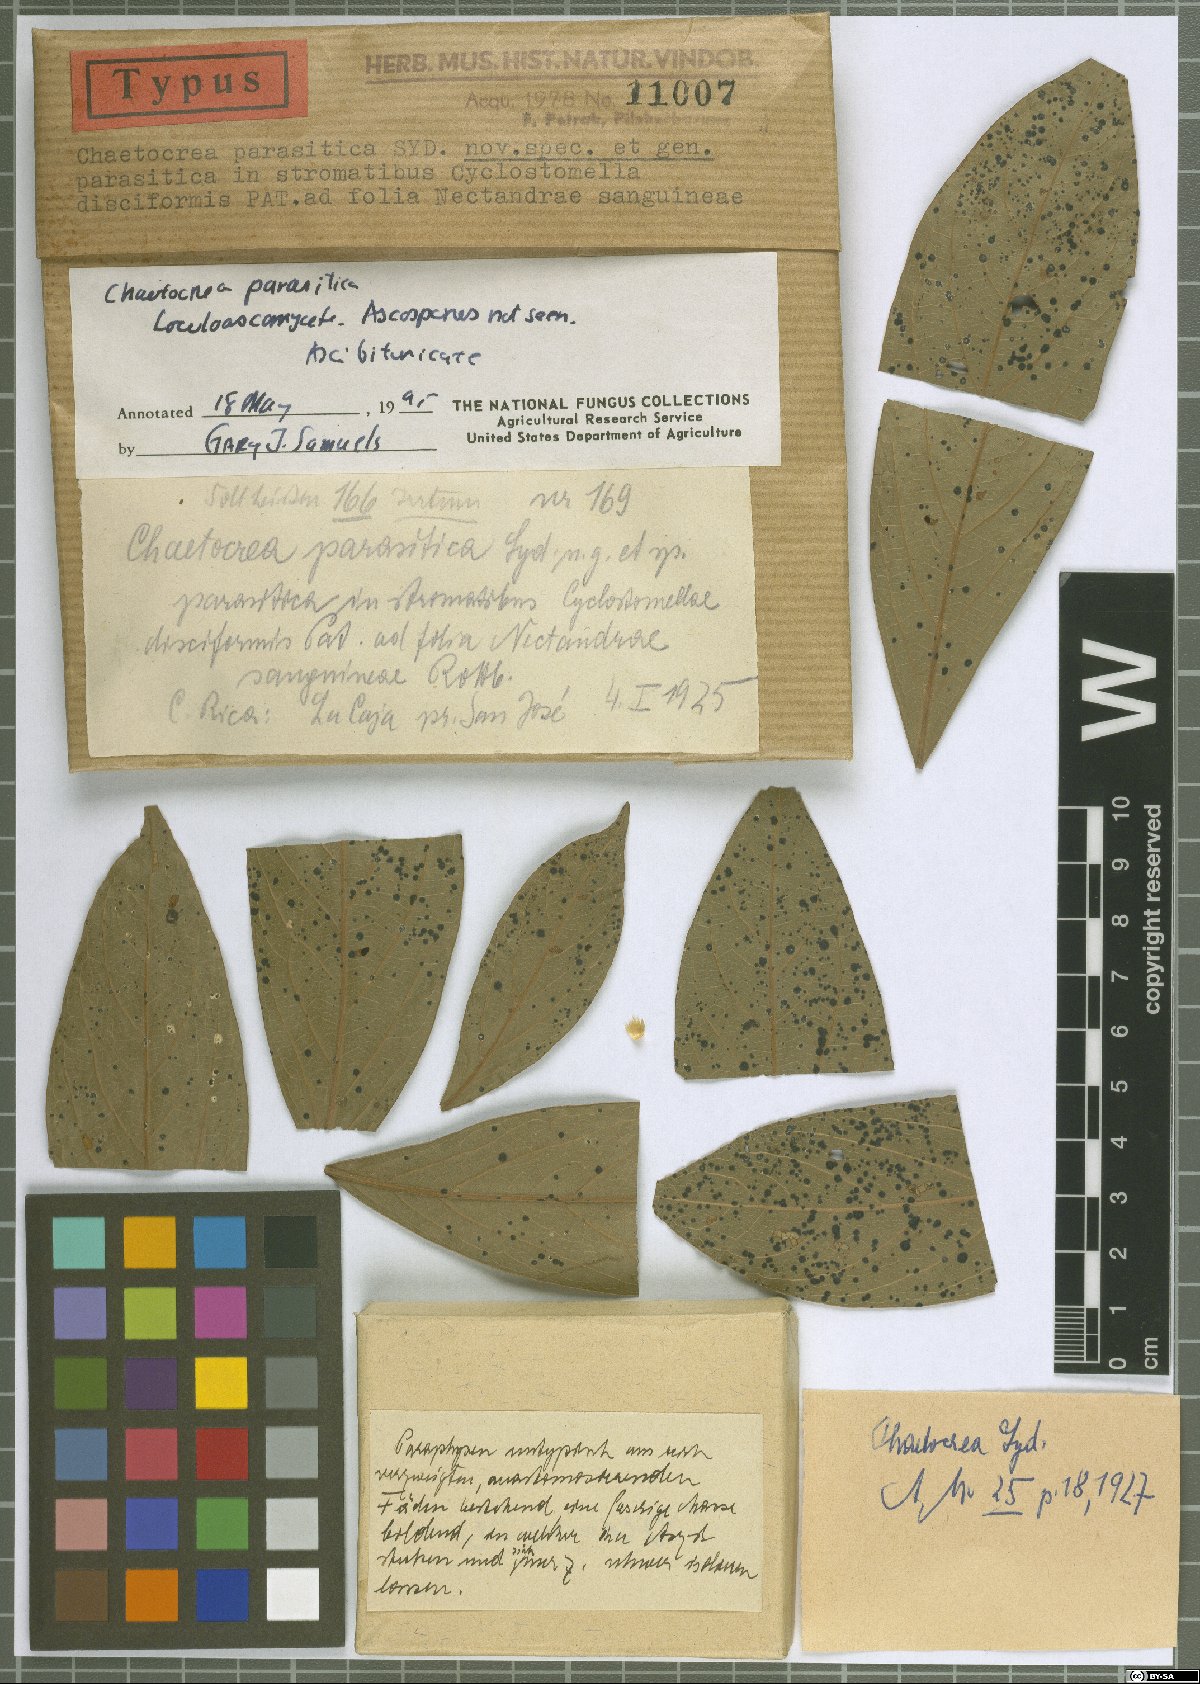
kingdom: Fungi
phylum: Ascomycota
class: Dothideomycetes
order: Tubeufiales
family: Tubeufiaceae
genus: Chaetocrea
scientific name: Chaetocrea parasitica
